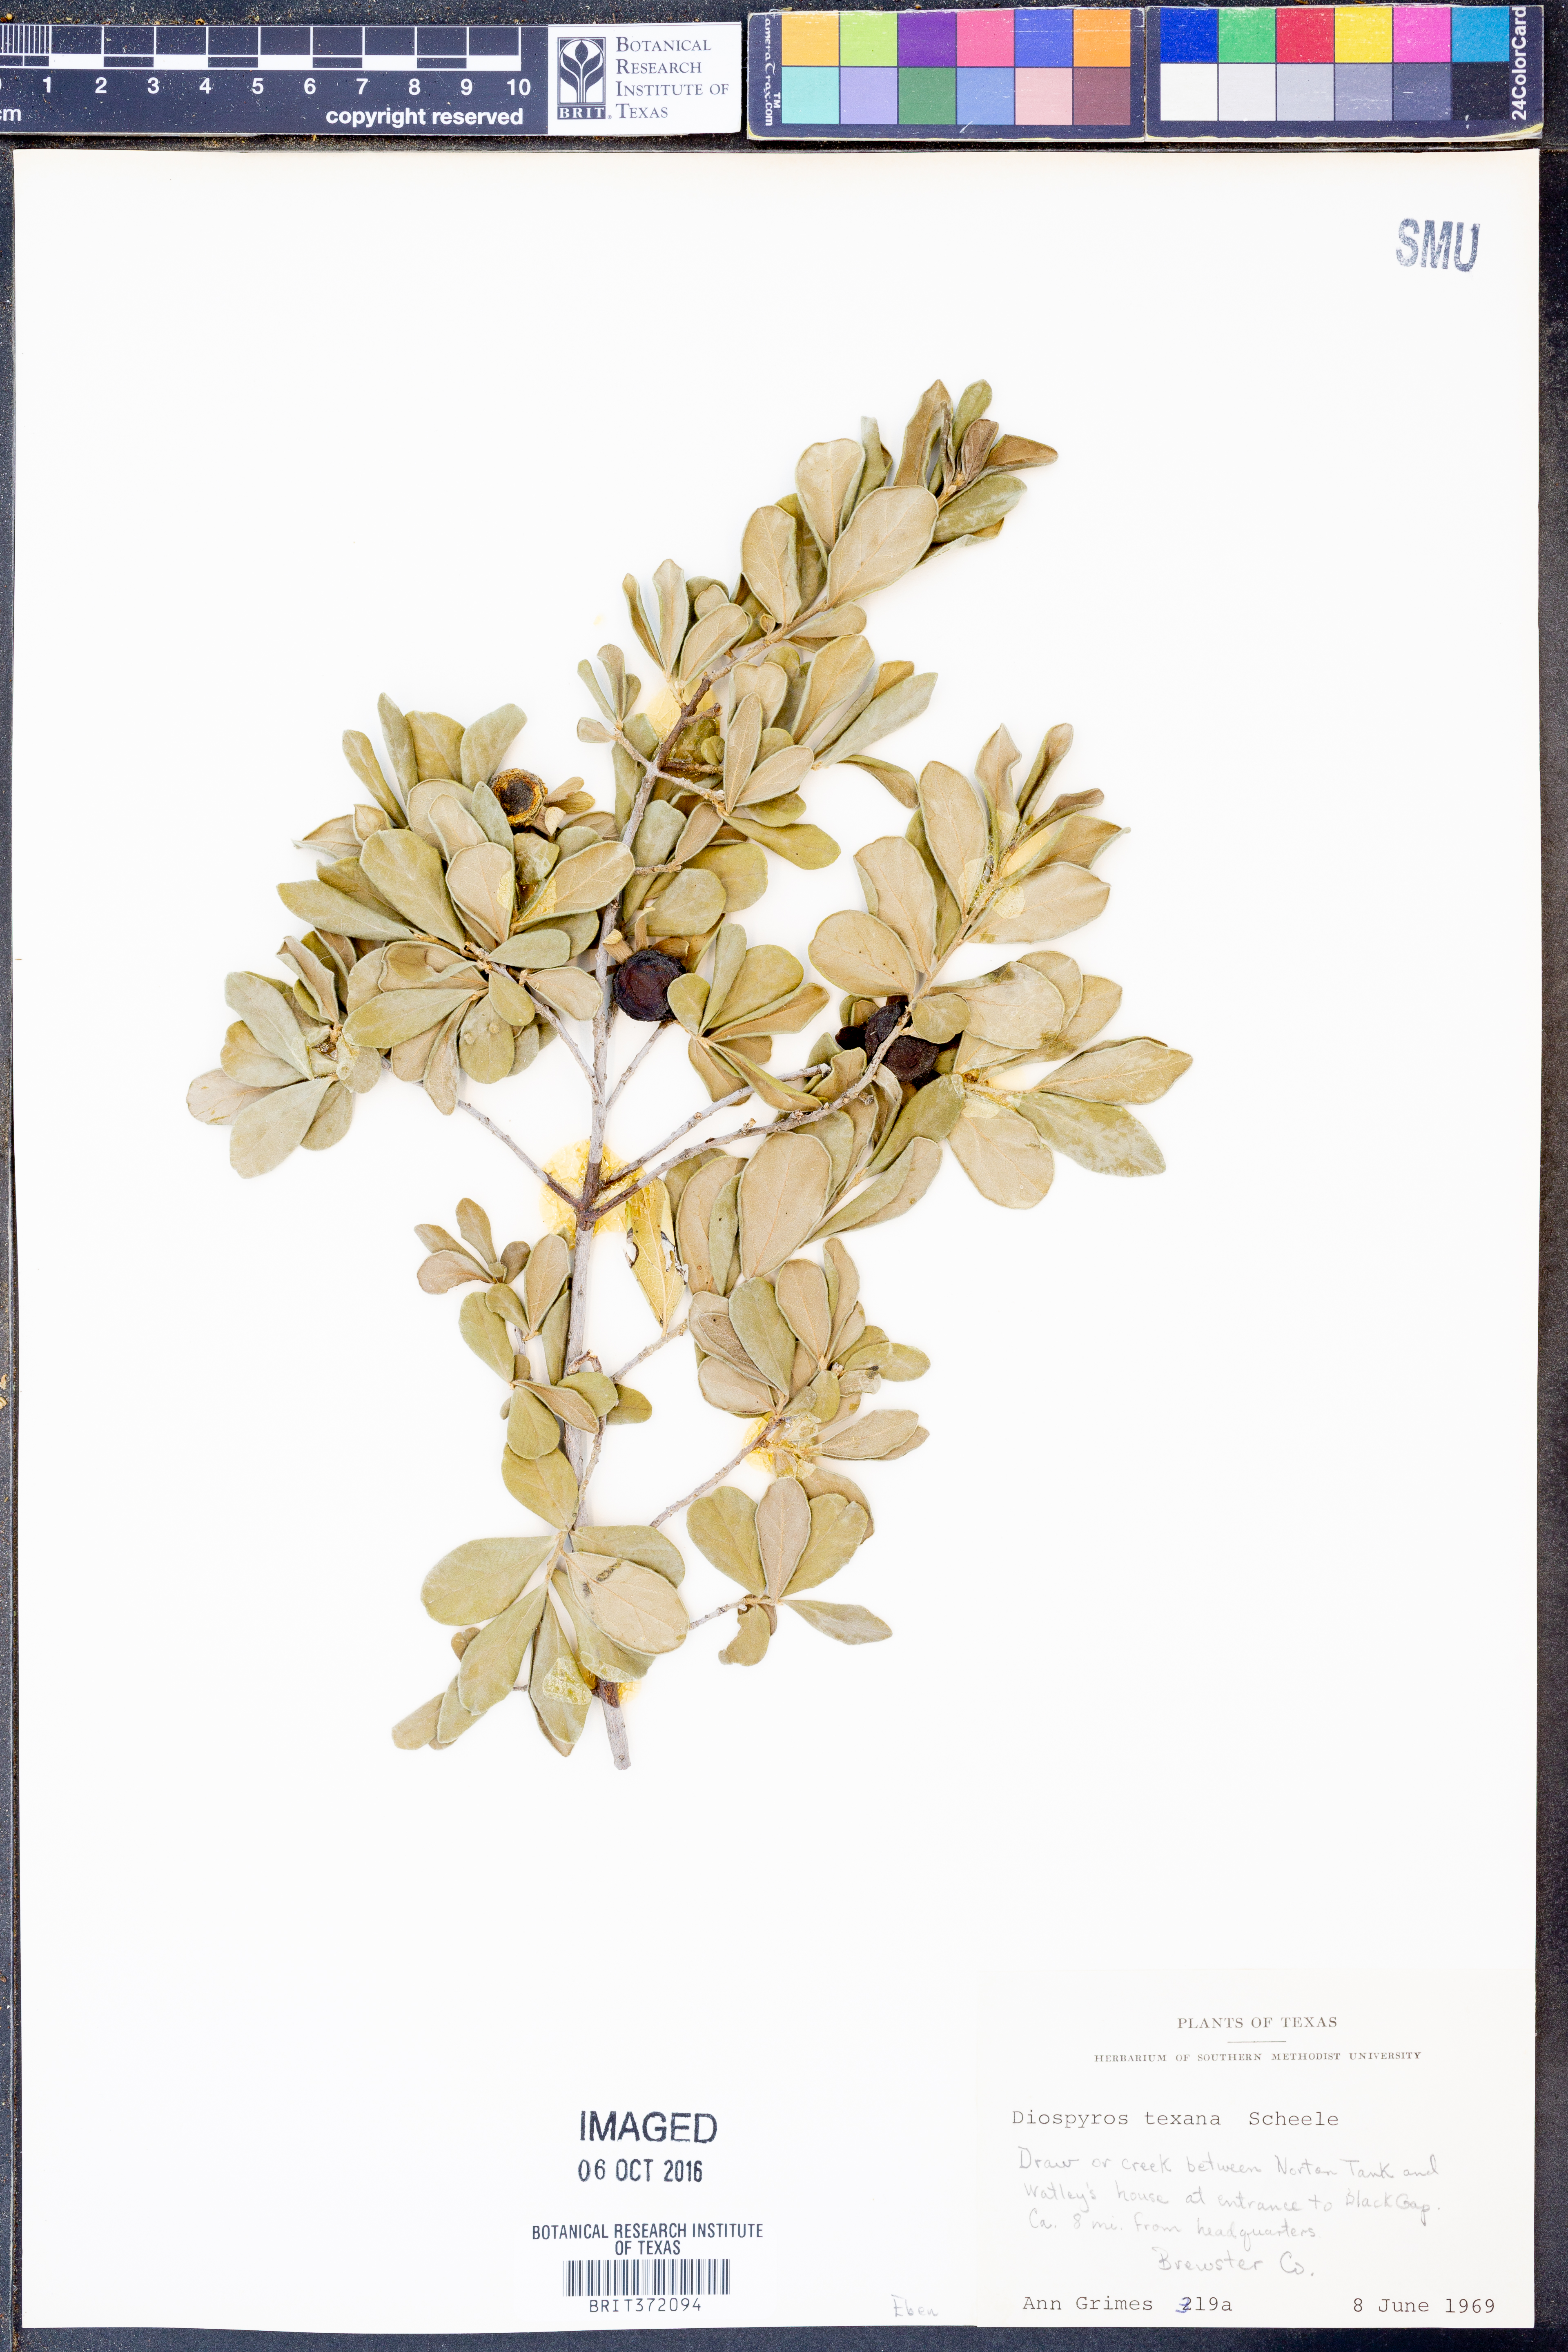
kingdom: Plantae
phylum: Tracheophyta
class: Magnoliopsida
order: Ericales
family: Ebenaceae
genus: Diospyros
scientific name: Diospyros texana
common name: Texas persimmon
